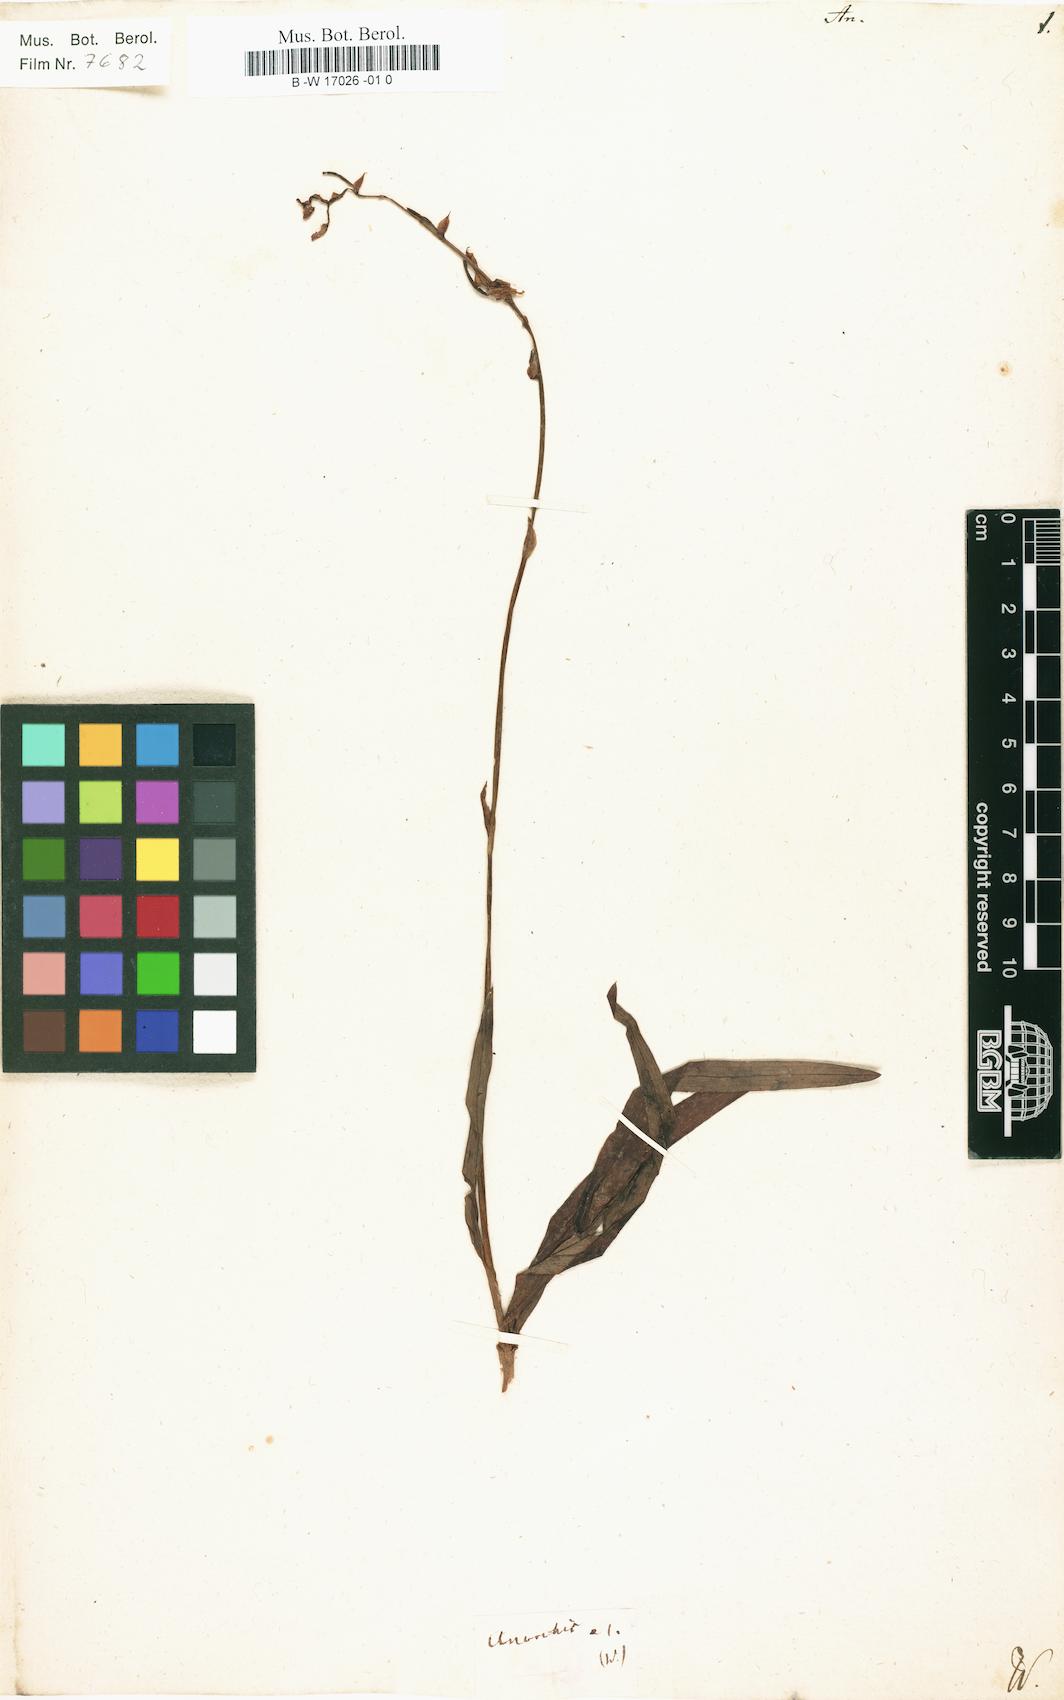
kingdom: Plantae
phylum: Tracheophyta
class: Liliopsida
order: Asparagales
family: Orchidaceae
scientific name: Orchidaceae
